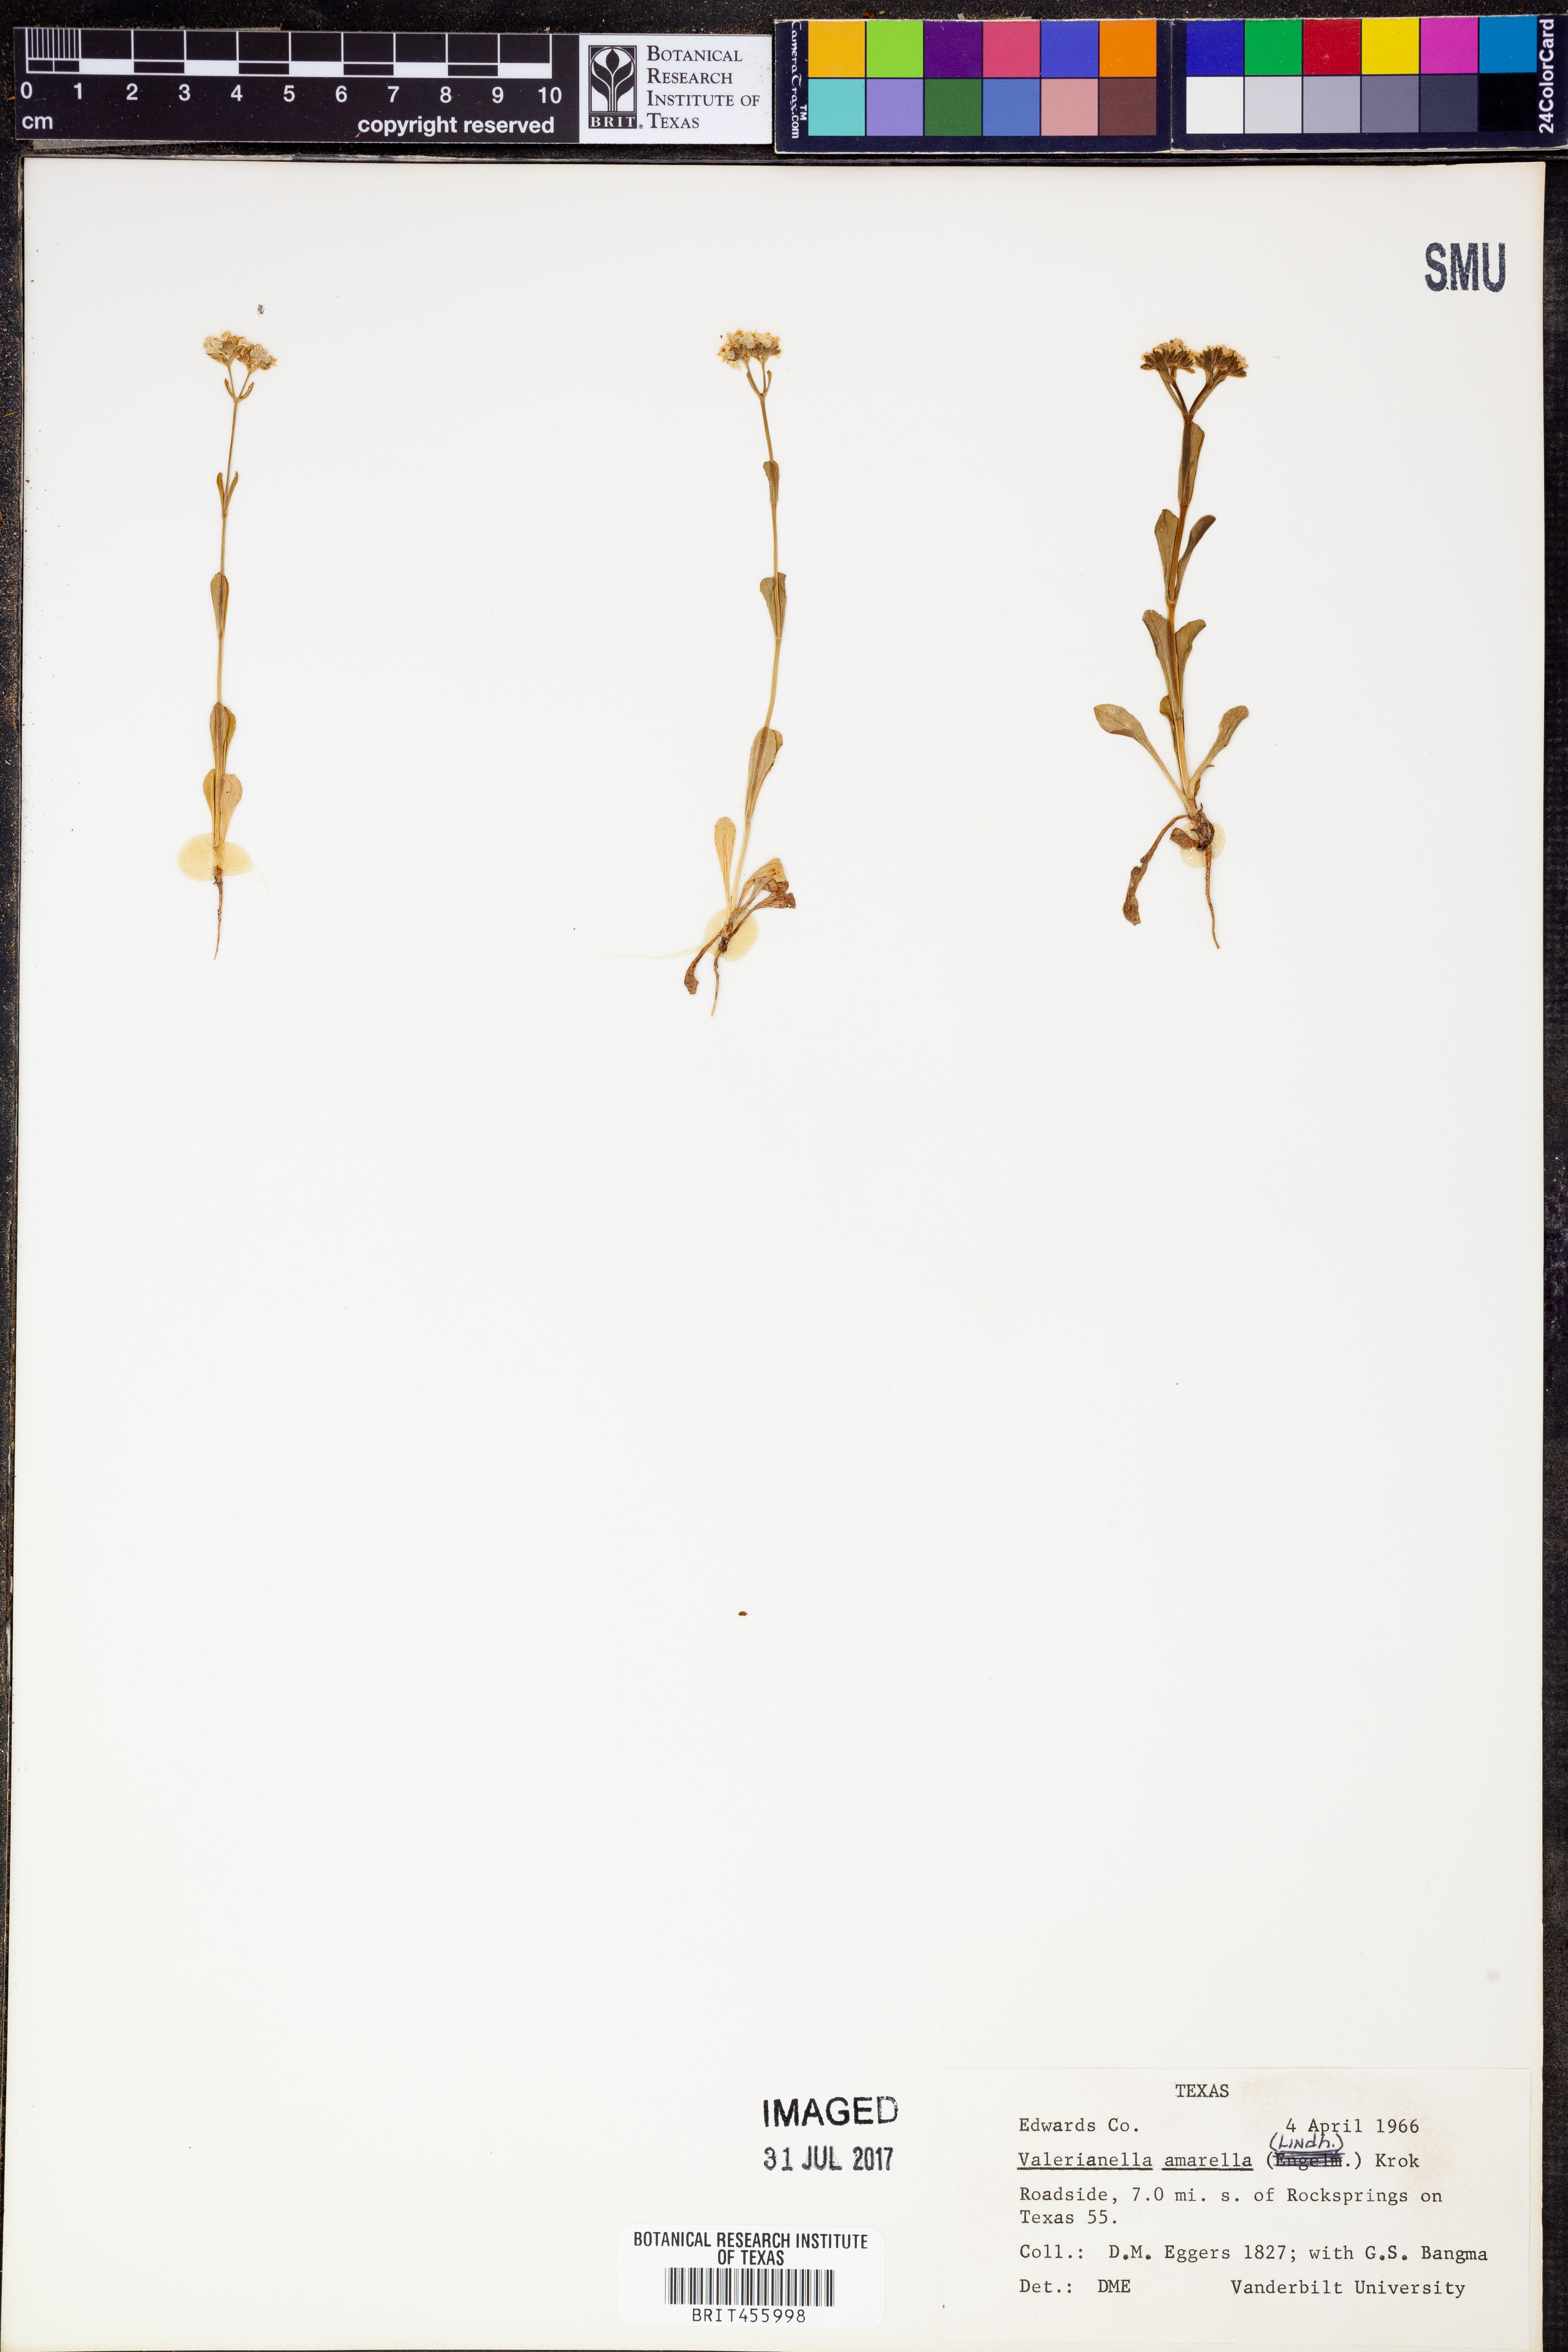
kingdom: Plantae
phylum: Tracheophyta
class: Magnoliopsida
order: Dipsacales
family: Caprifoliaceae
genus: Valerianella
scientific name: Valerianella amarella
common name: Hariy cornsalad
